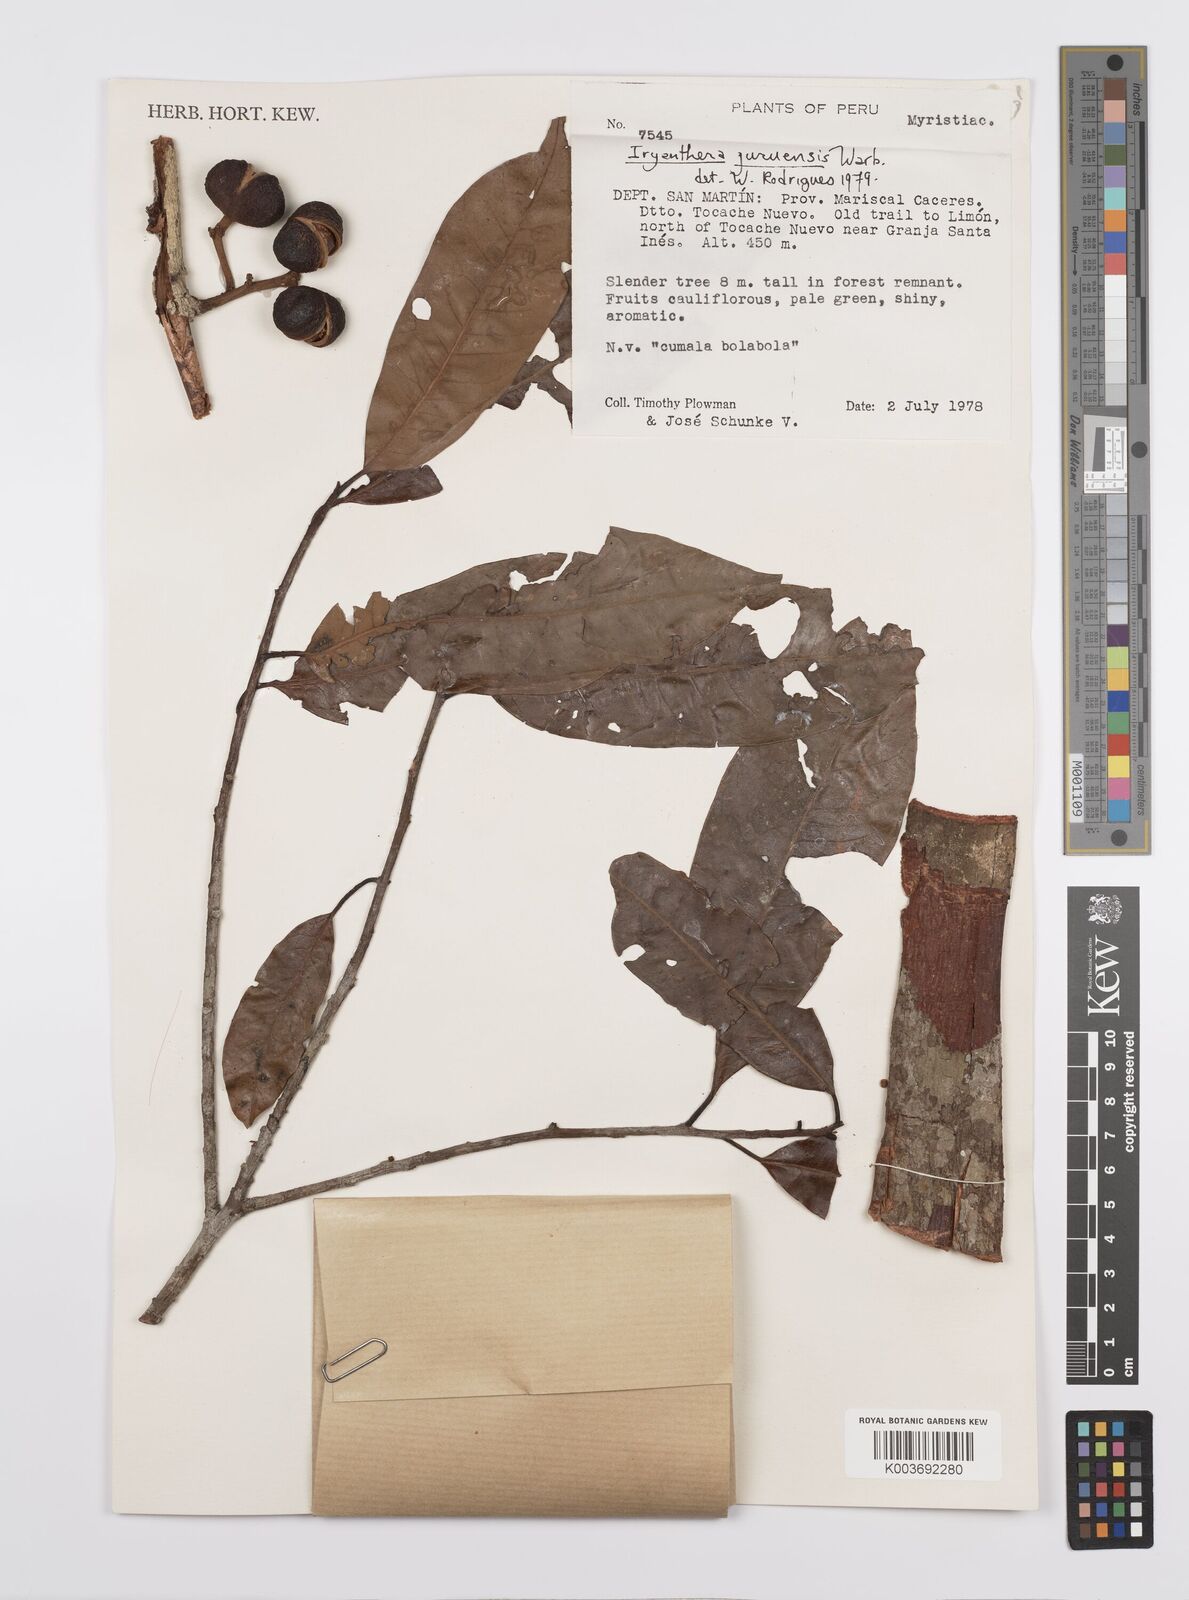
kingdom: Plantae
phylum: Tracheophyta
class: Magnoliopsida
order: Magnoliales
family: Myristicaceae
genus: Iryanthera
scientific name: Iryanthera juruensis
